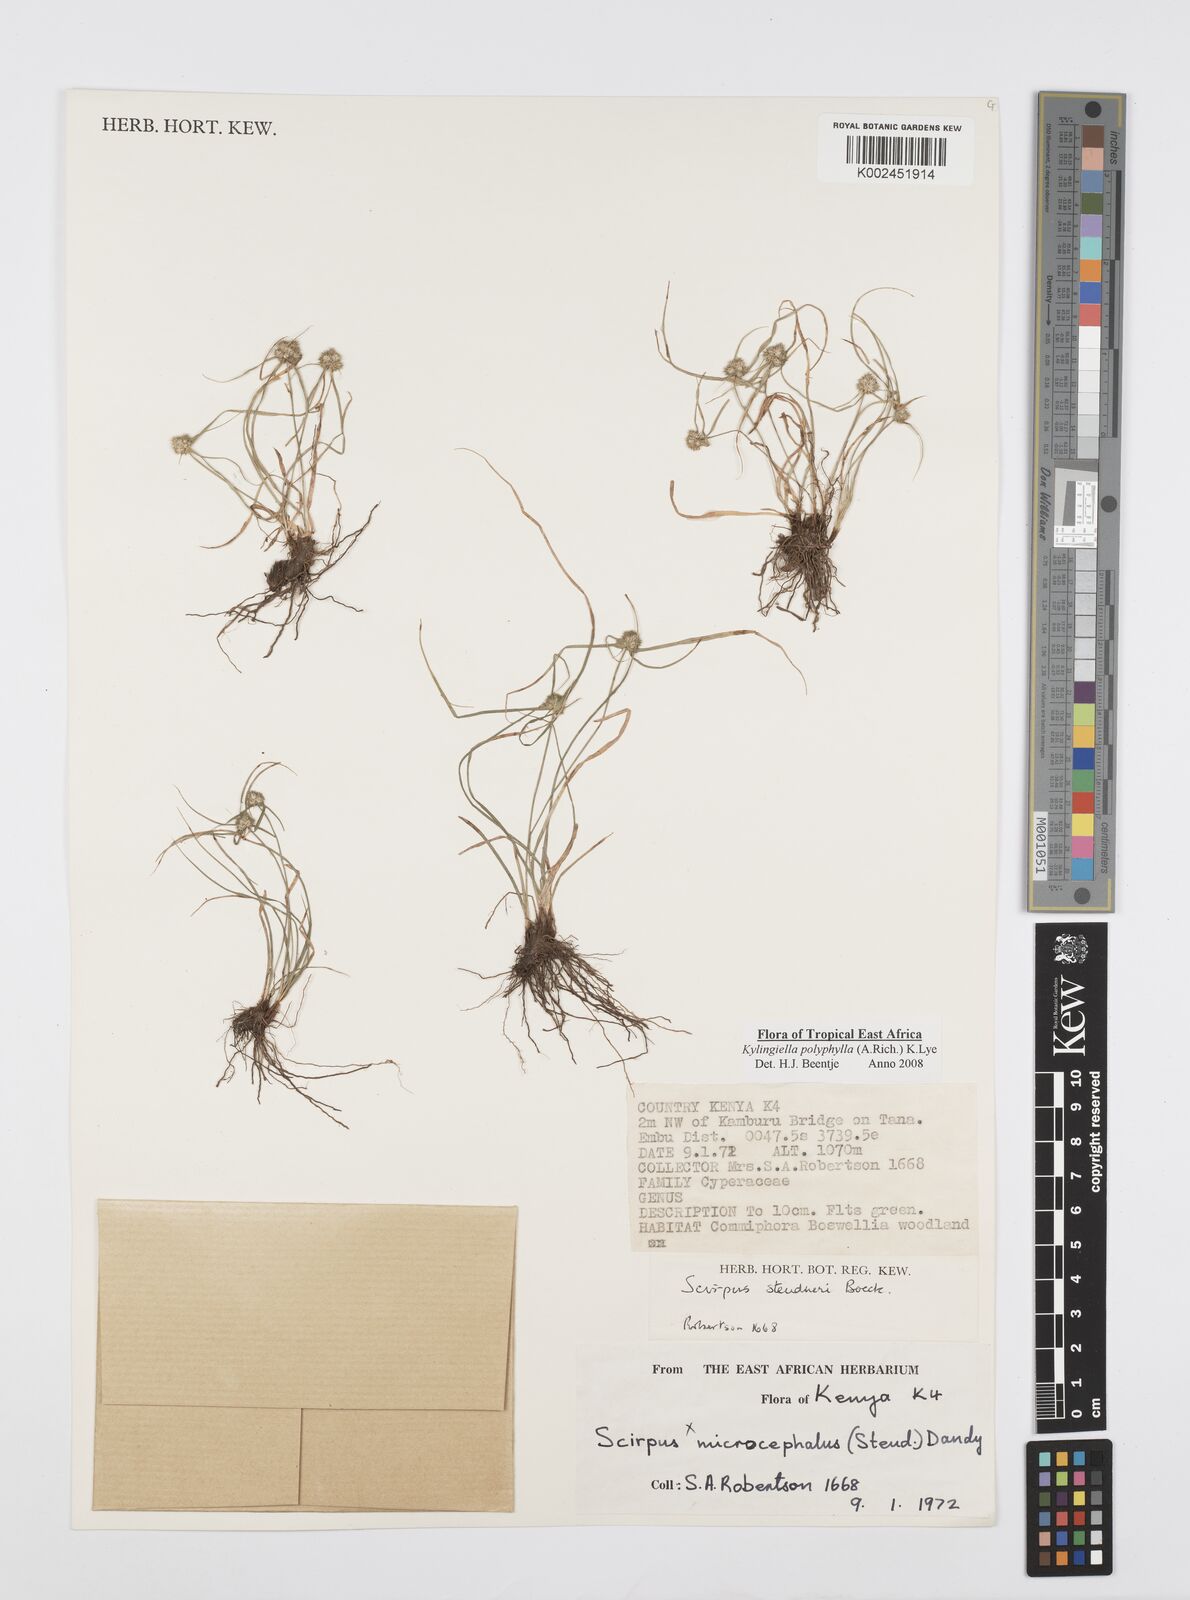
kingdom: Plantae
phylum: Tracheophyta
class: Liliopsida
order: Poales
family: Cyperaceae
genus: Cyperus
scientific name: Cyperus bulbosus
